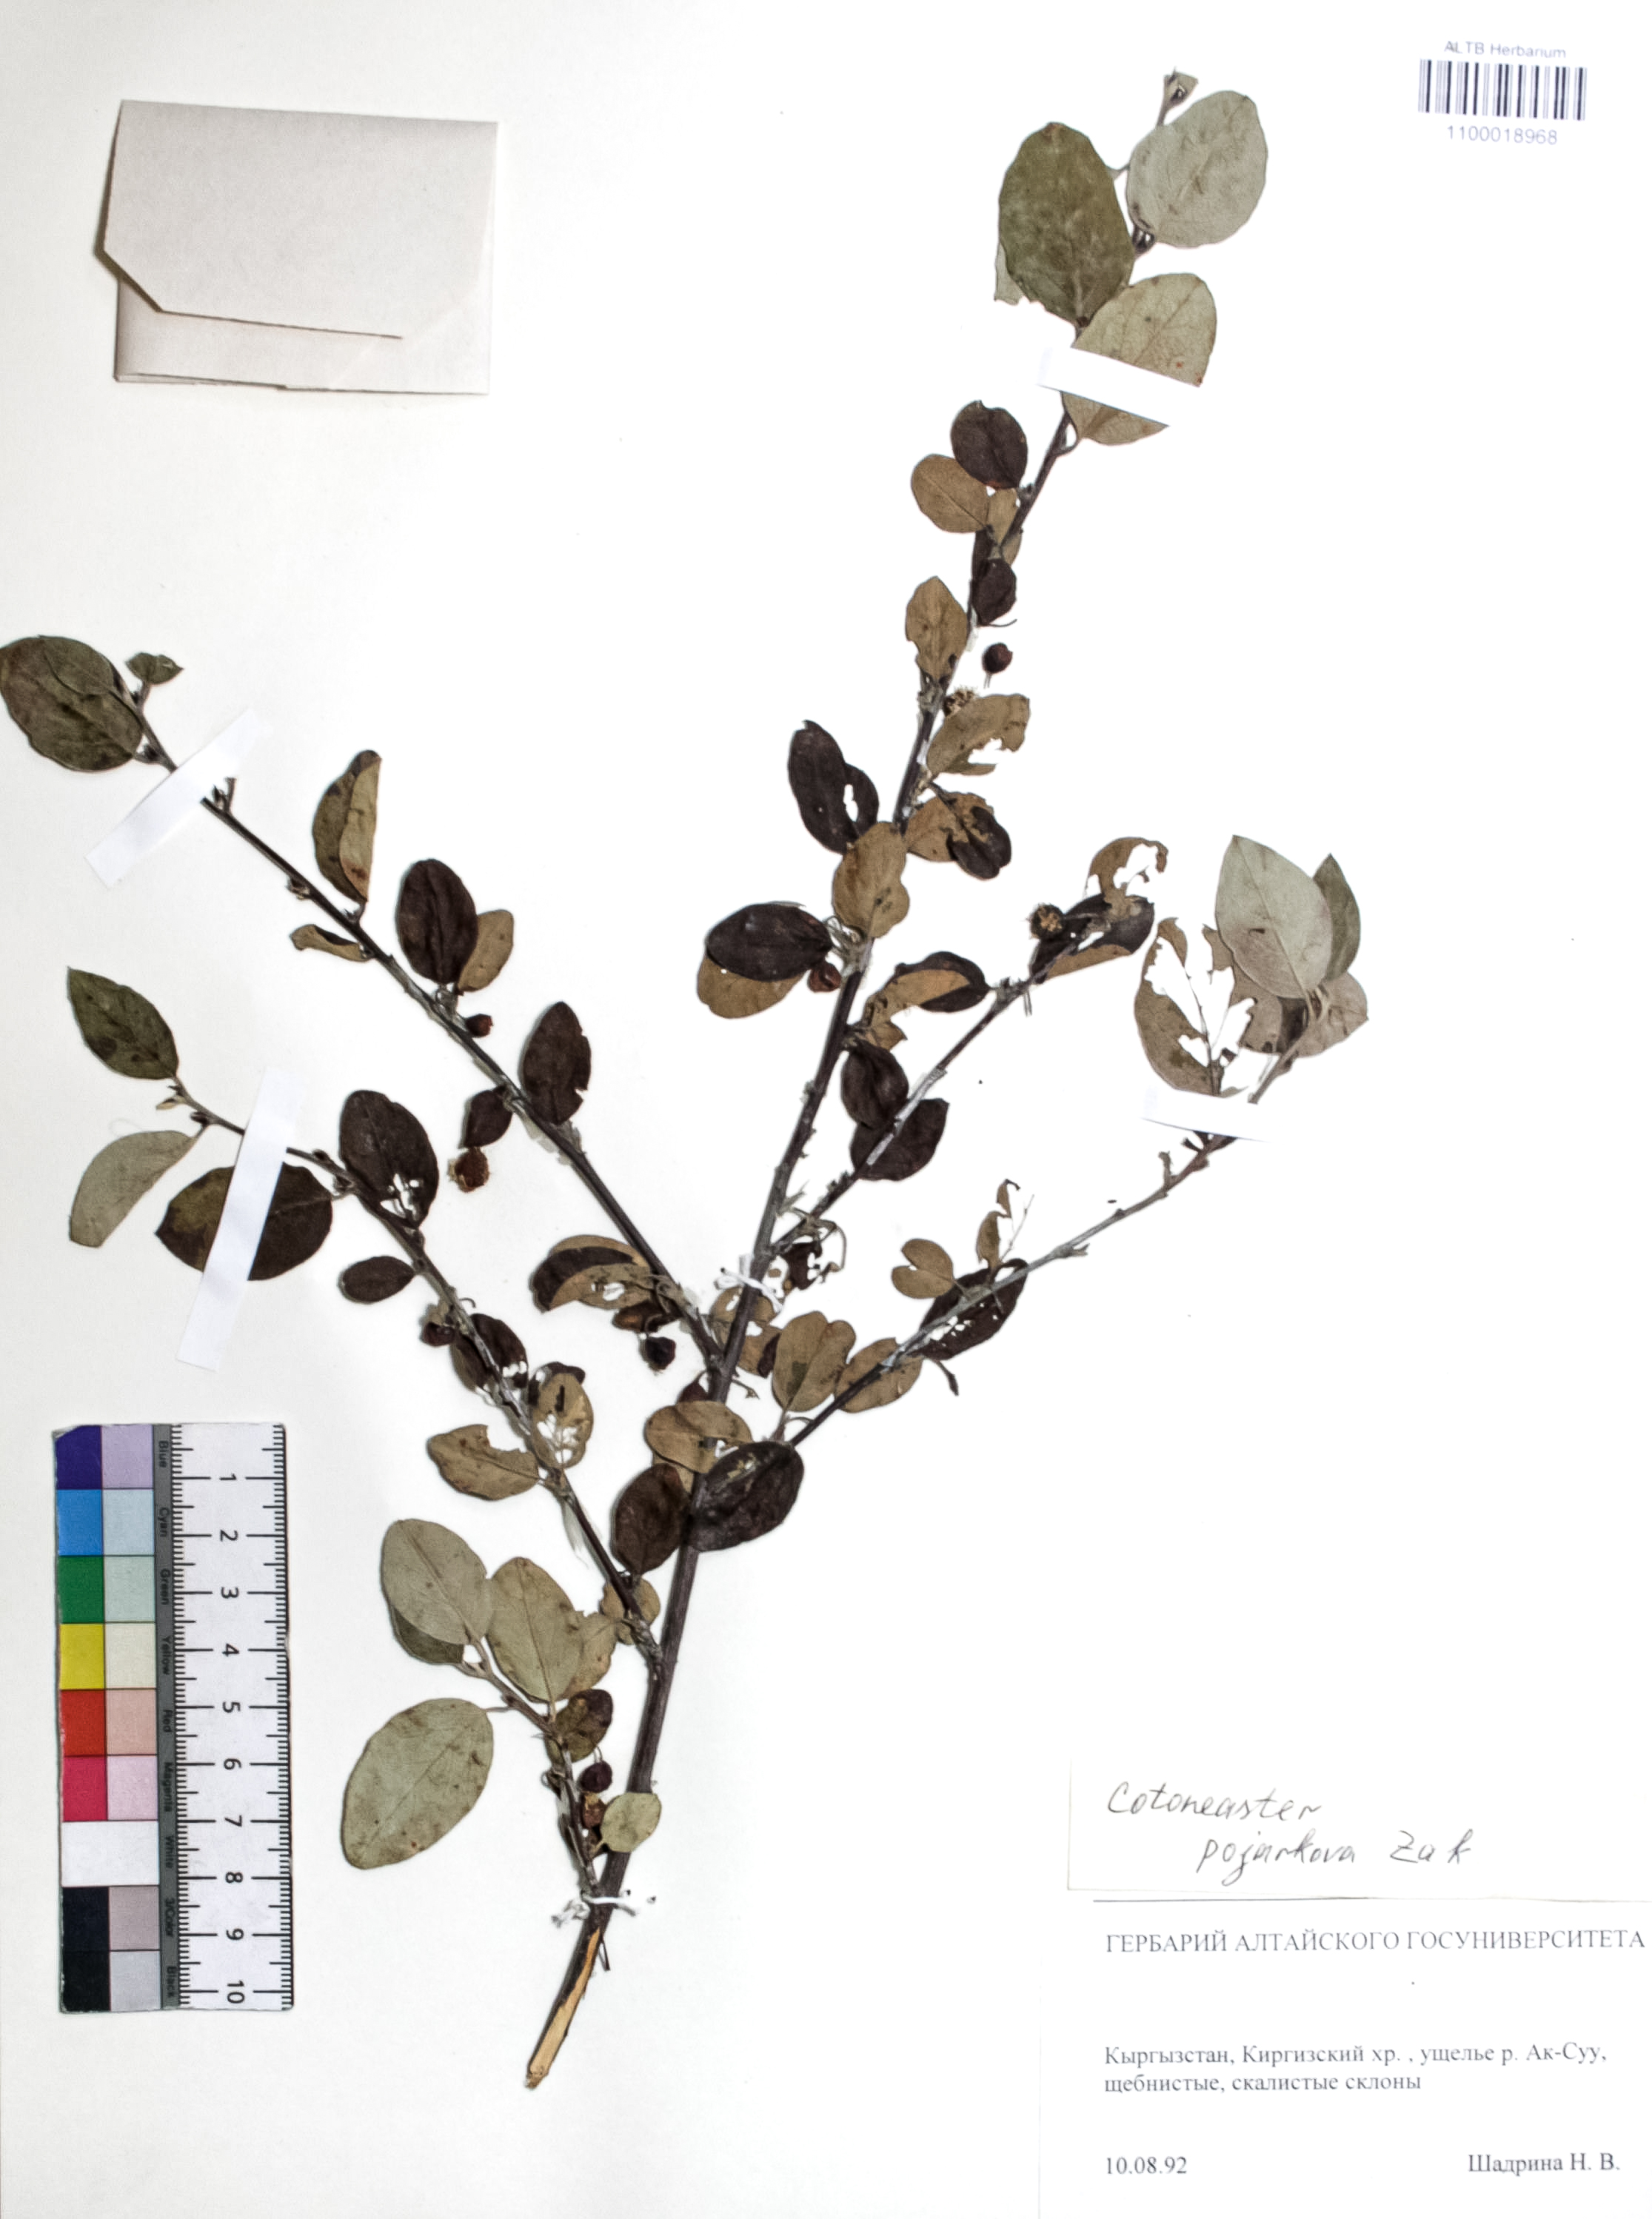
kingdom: Plantae
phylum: Tracheophyta
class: Magnoliopsida
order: Rosales
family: Rosaceae
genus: Cotoneaster
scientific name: Cotoneaster alatavicus
